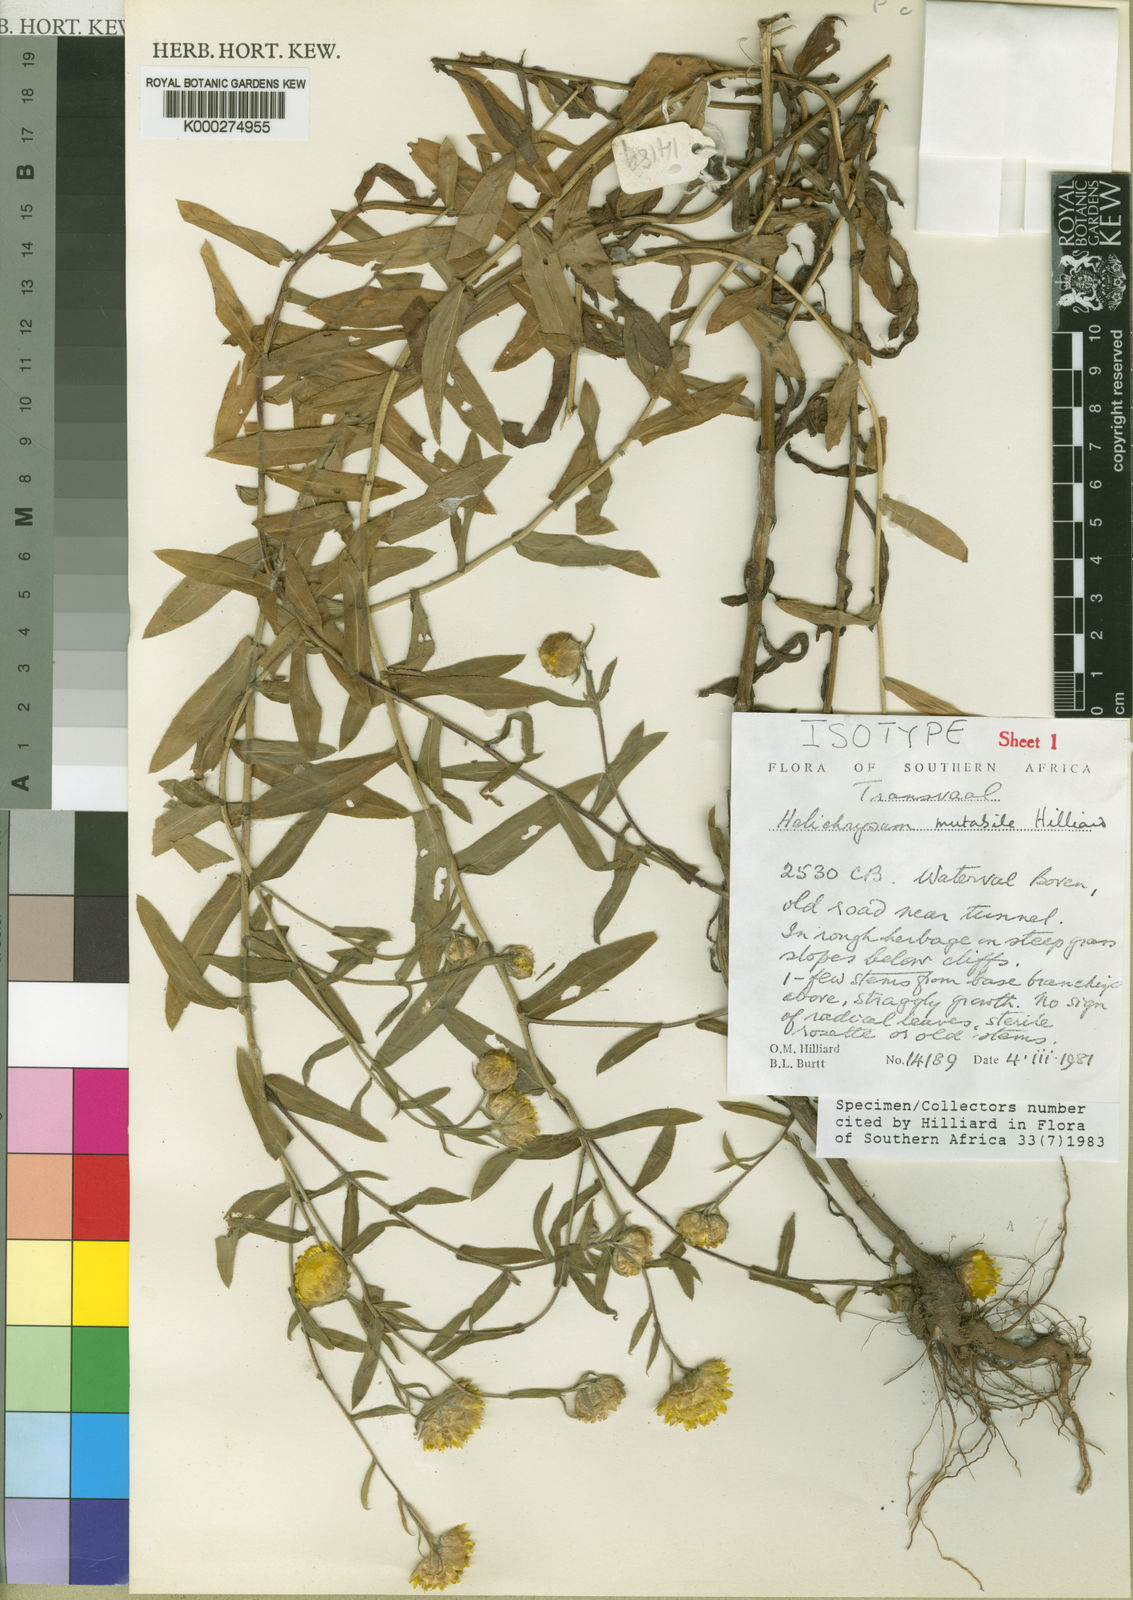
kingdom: Plantae
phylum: Tracheophyta
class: Magnoliopsida
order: Asterales
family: Asteraceae
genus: Helichrysum
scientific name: Helichrysum mutabile
